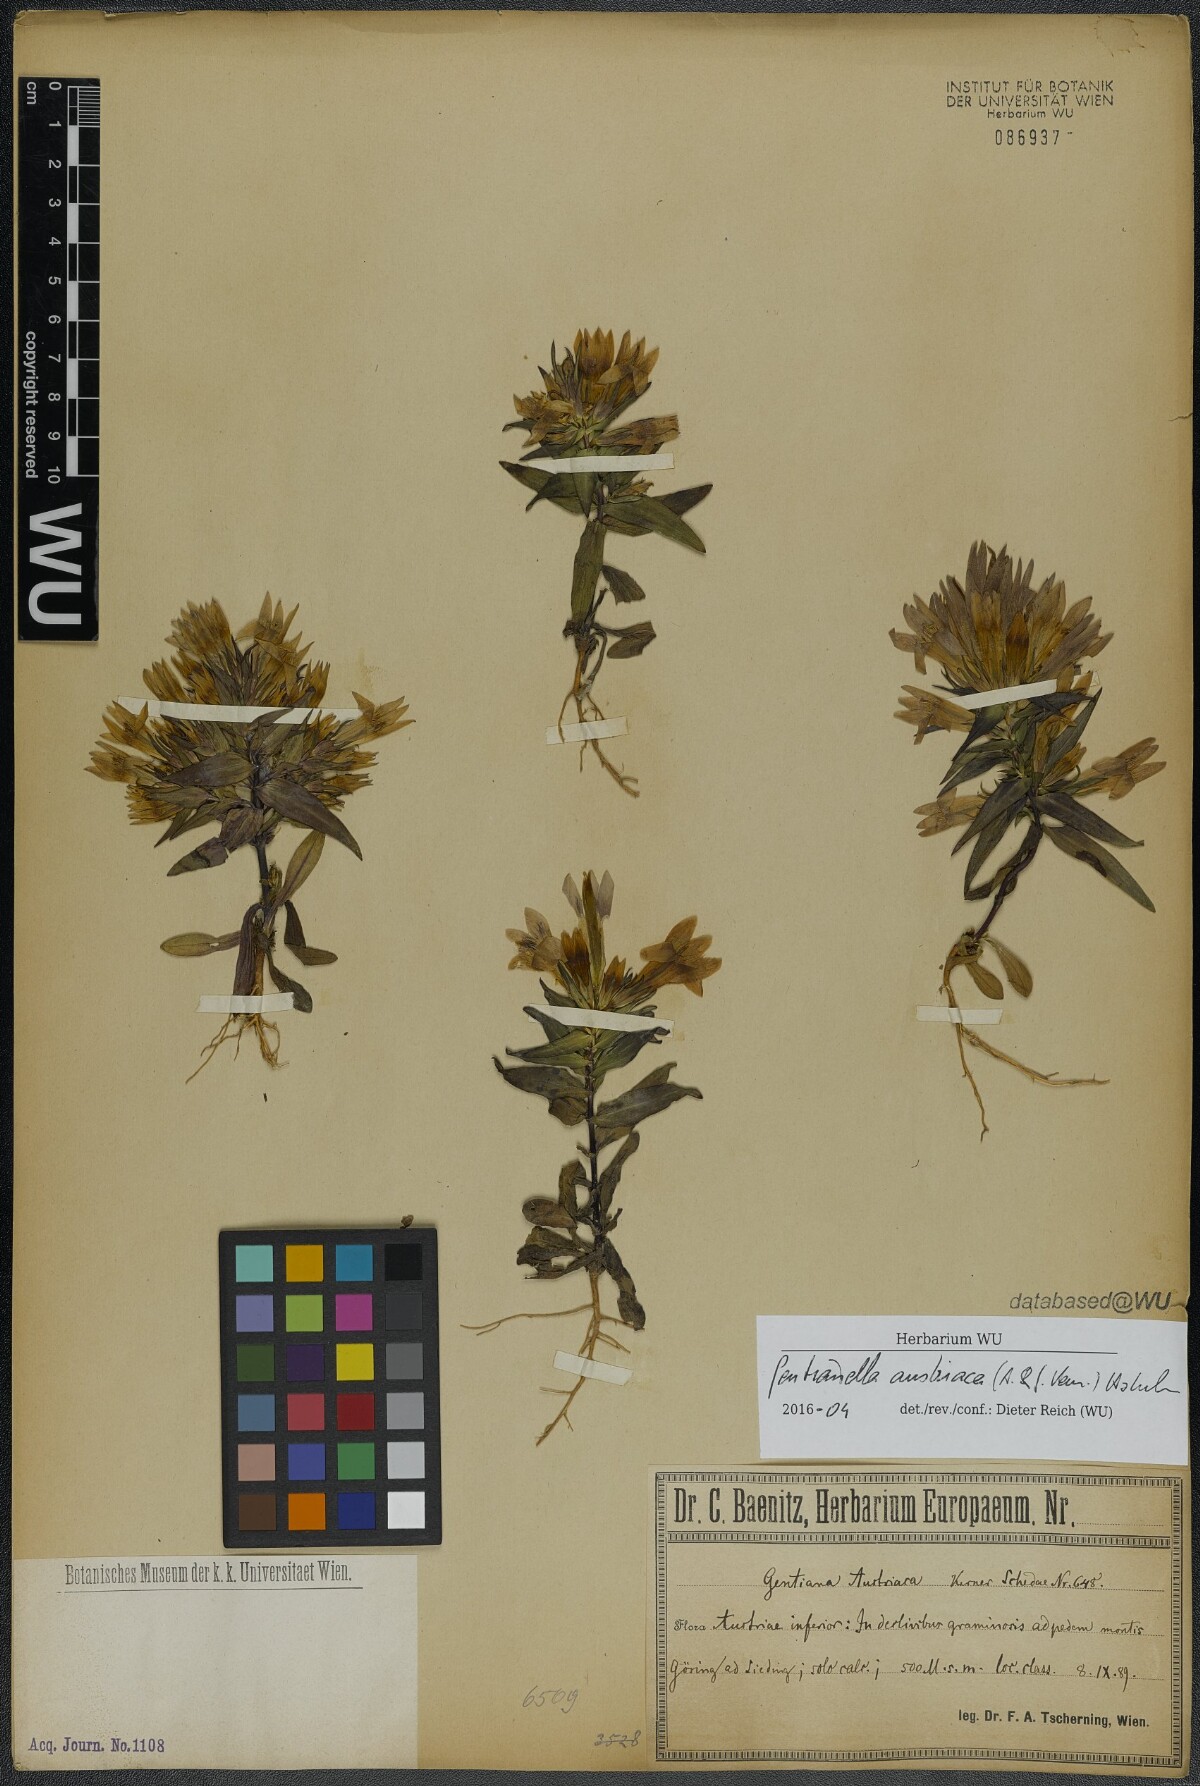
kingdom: Plantae
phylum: Tracheophyta
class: Magnoliopsida
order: Gentianales
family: Gentianaceae
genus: Gentianella
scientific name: Gentianella austriaca
